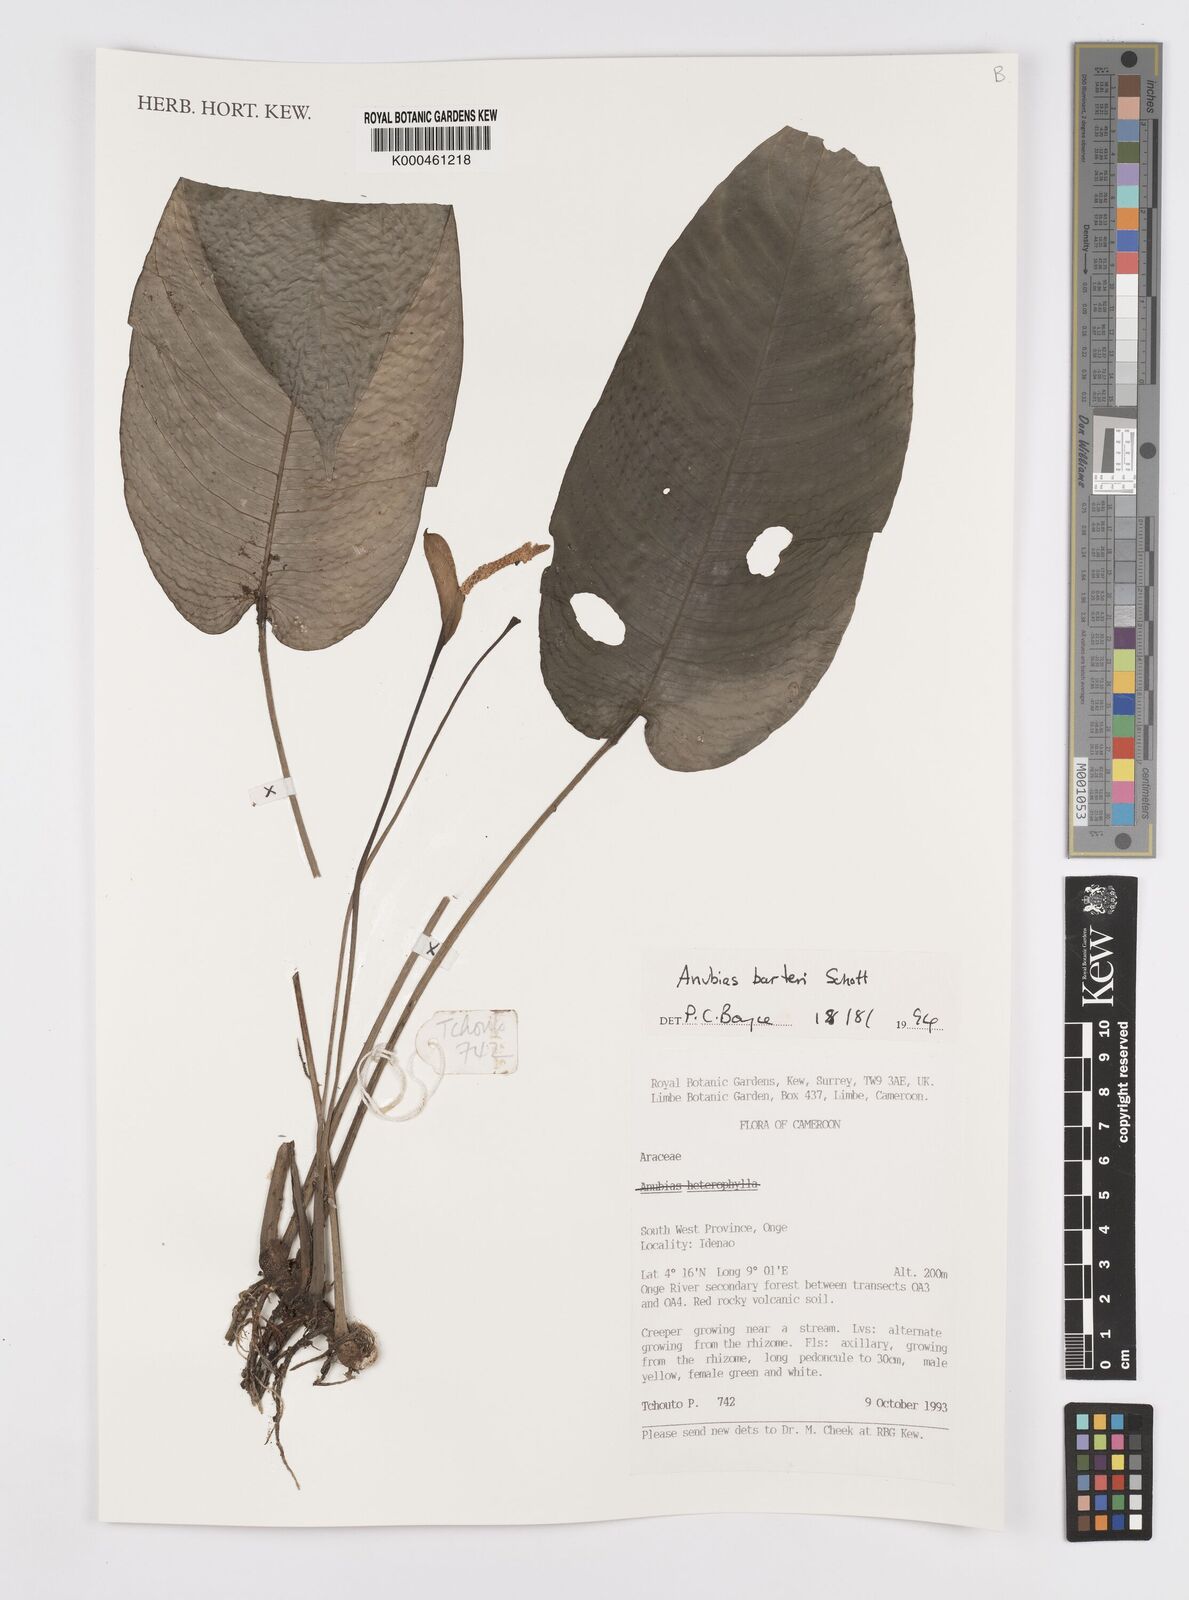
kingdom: Plantae
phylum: Tracheophyta
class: Liliopsida
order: Alismatales
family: Araceae
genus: Anubias
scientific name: Anubias barteri
